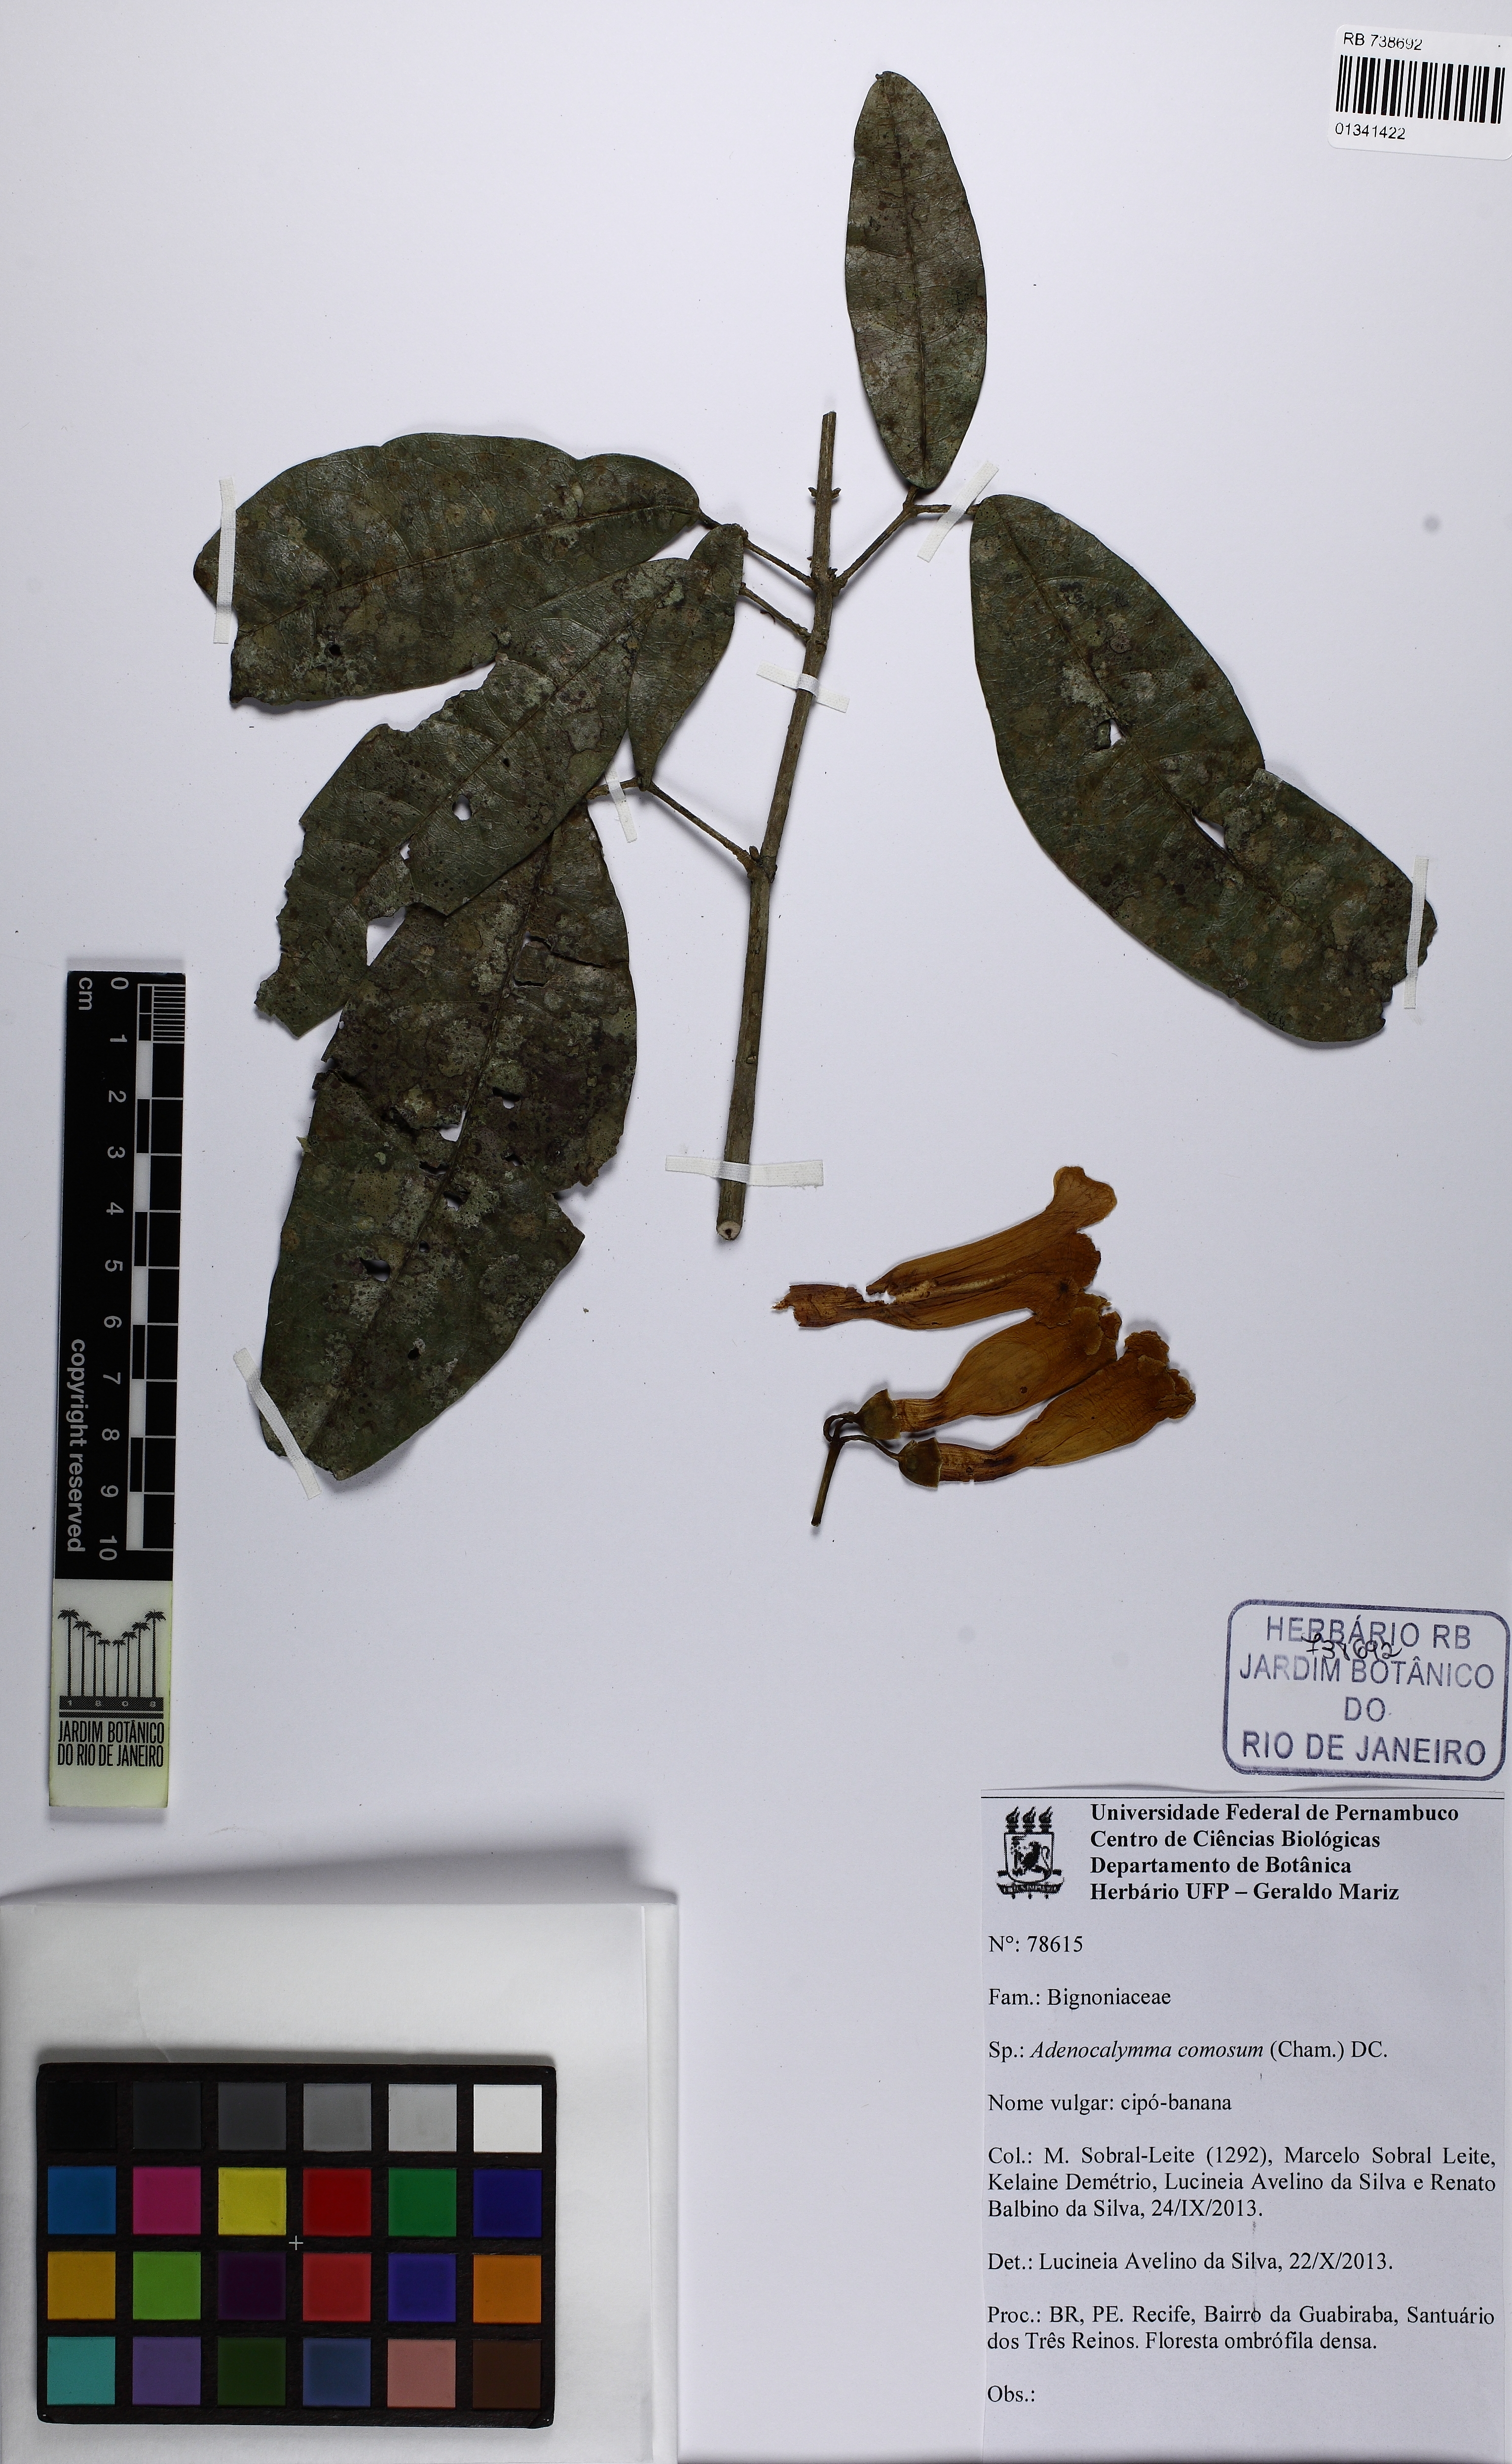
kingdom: Plantae
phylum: Tracheophyta
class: Magnoliopsida
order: Lamiales
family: Bignoniaceae
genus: Adenocalymma
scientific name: Adenocalymma acutissimum
